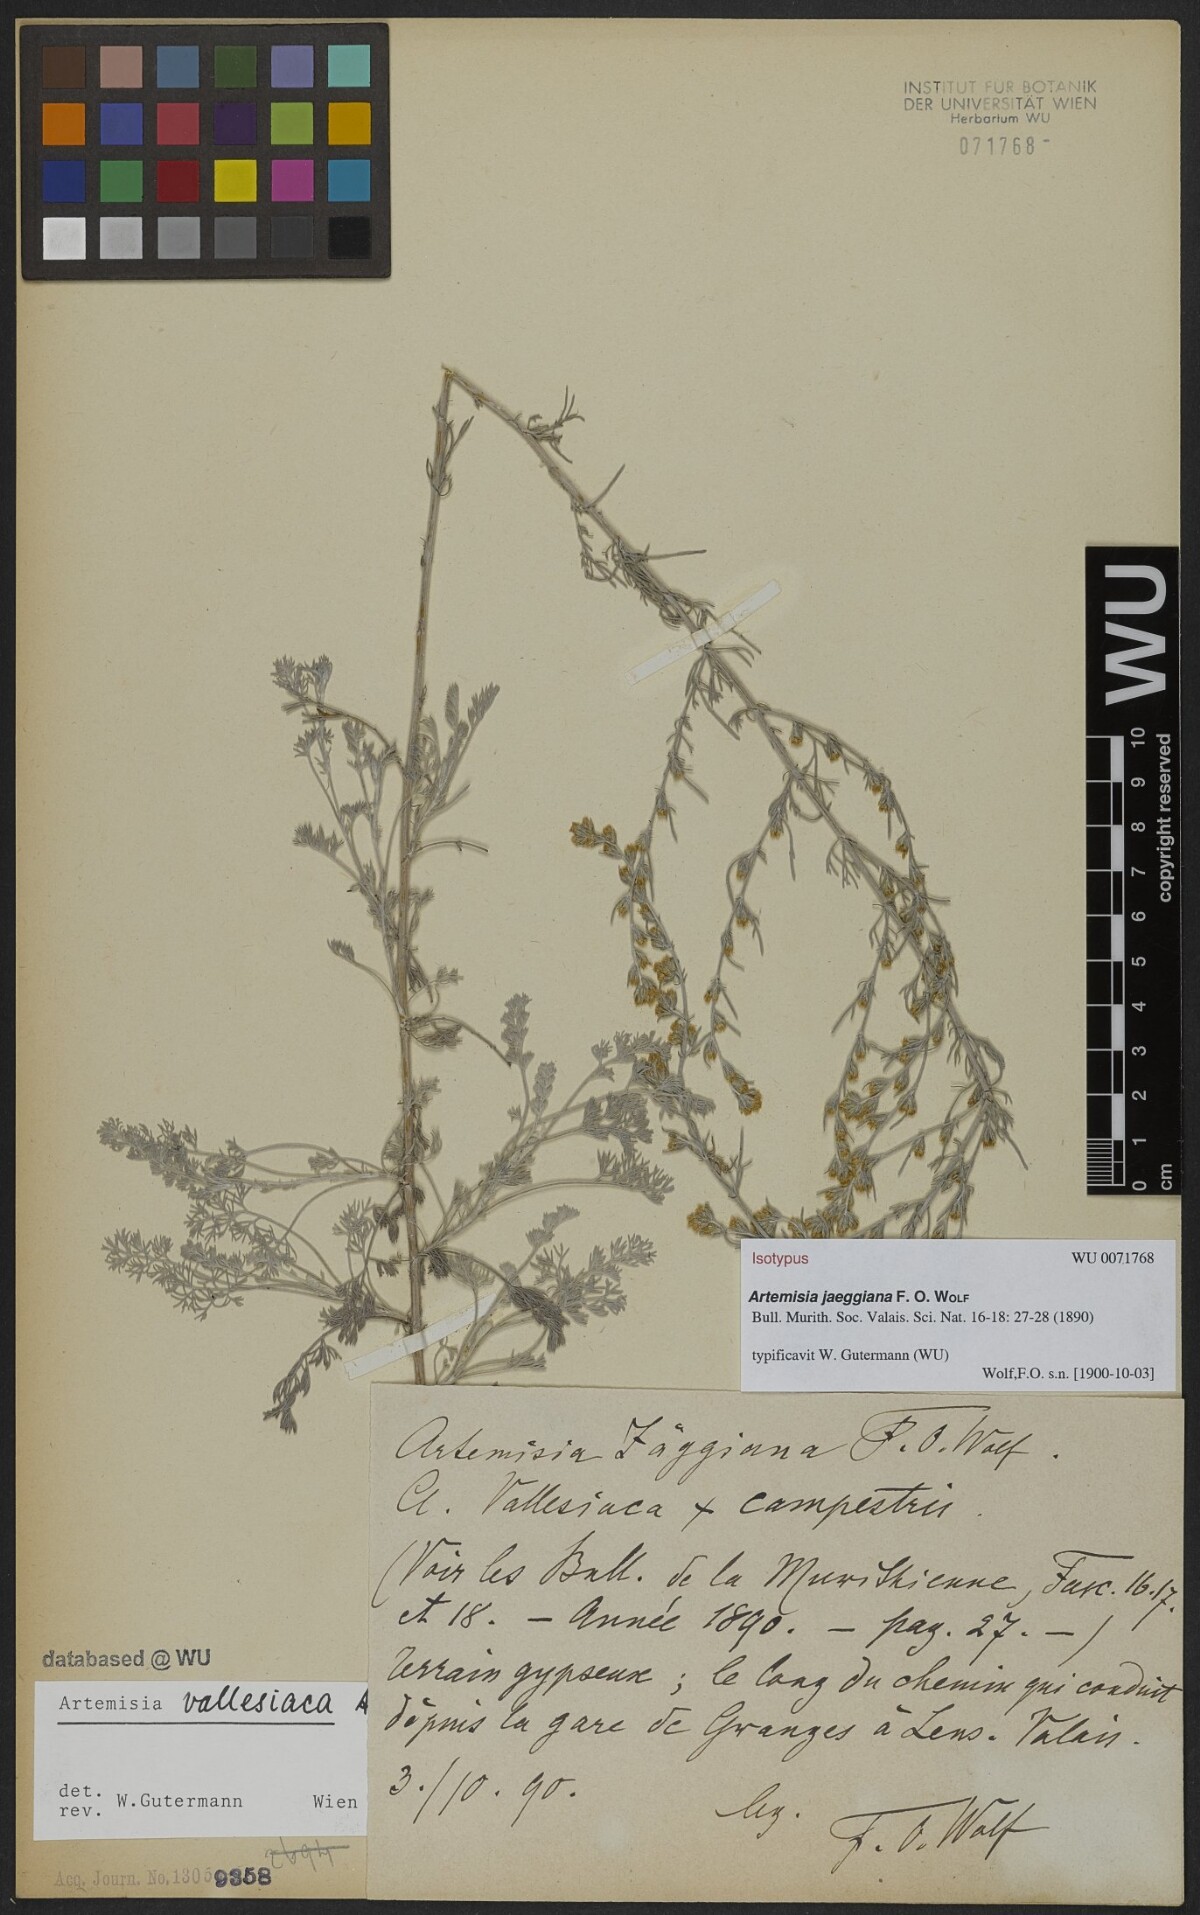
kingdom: Plantae
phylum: Tracheophyta
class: Magnoliopsida
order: Asterales
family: Asteraceae
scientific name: Asteraceae
